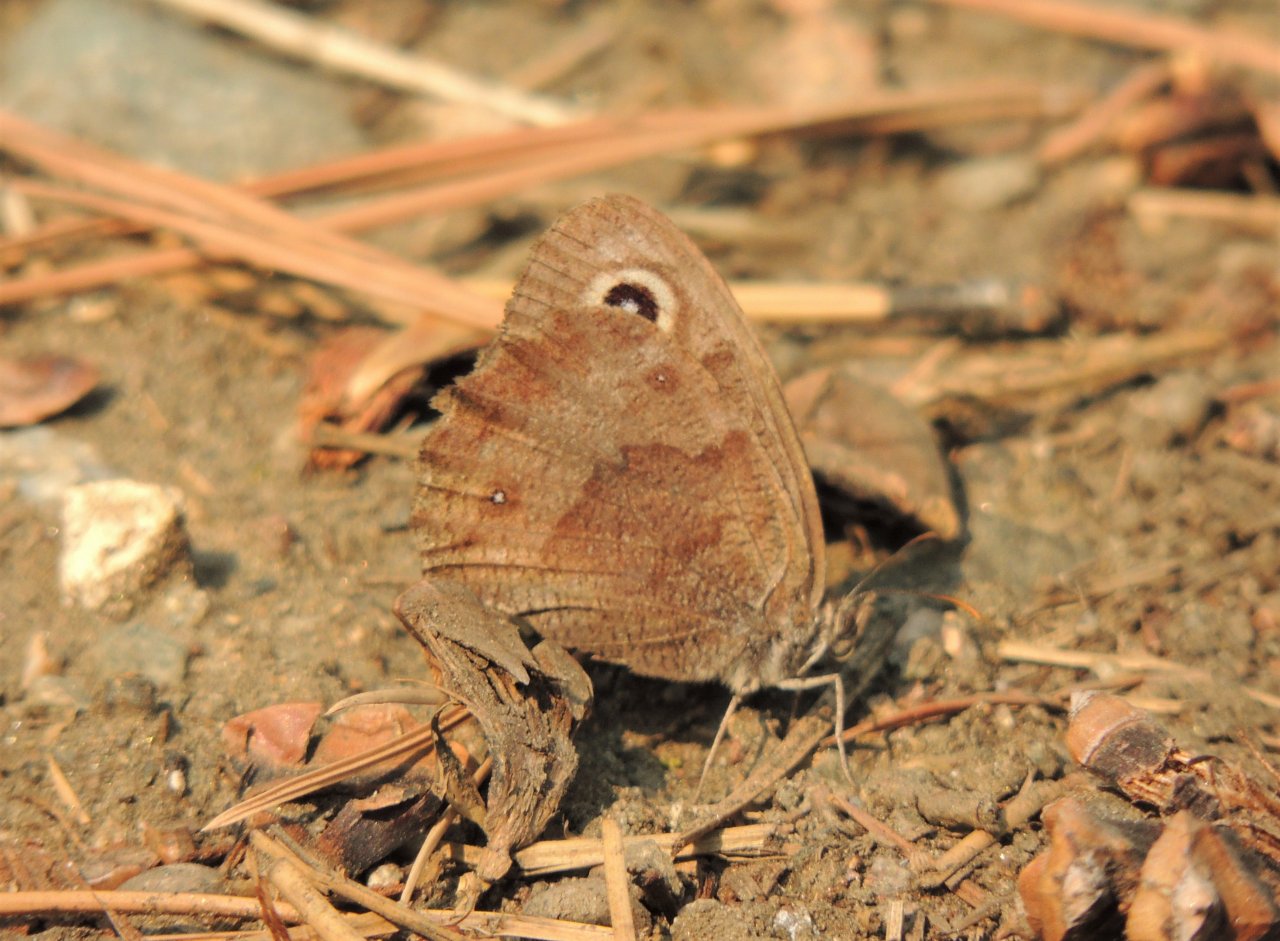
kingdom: Animalia
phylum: Arthropoda
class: Insecta
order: Lepidoptera
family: Nymphalidae
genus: Cercyonis
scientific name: Cercyonis pegala
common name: Common Wood-Nymph
